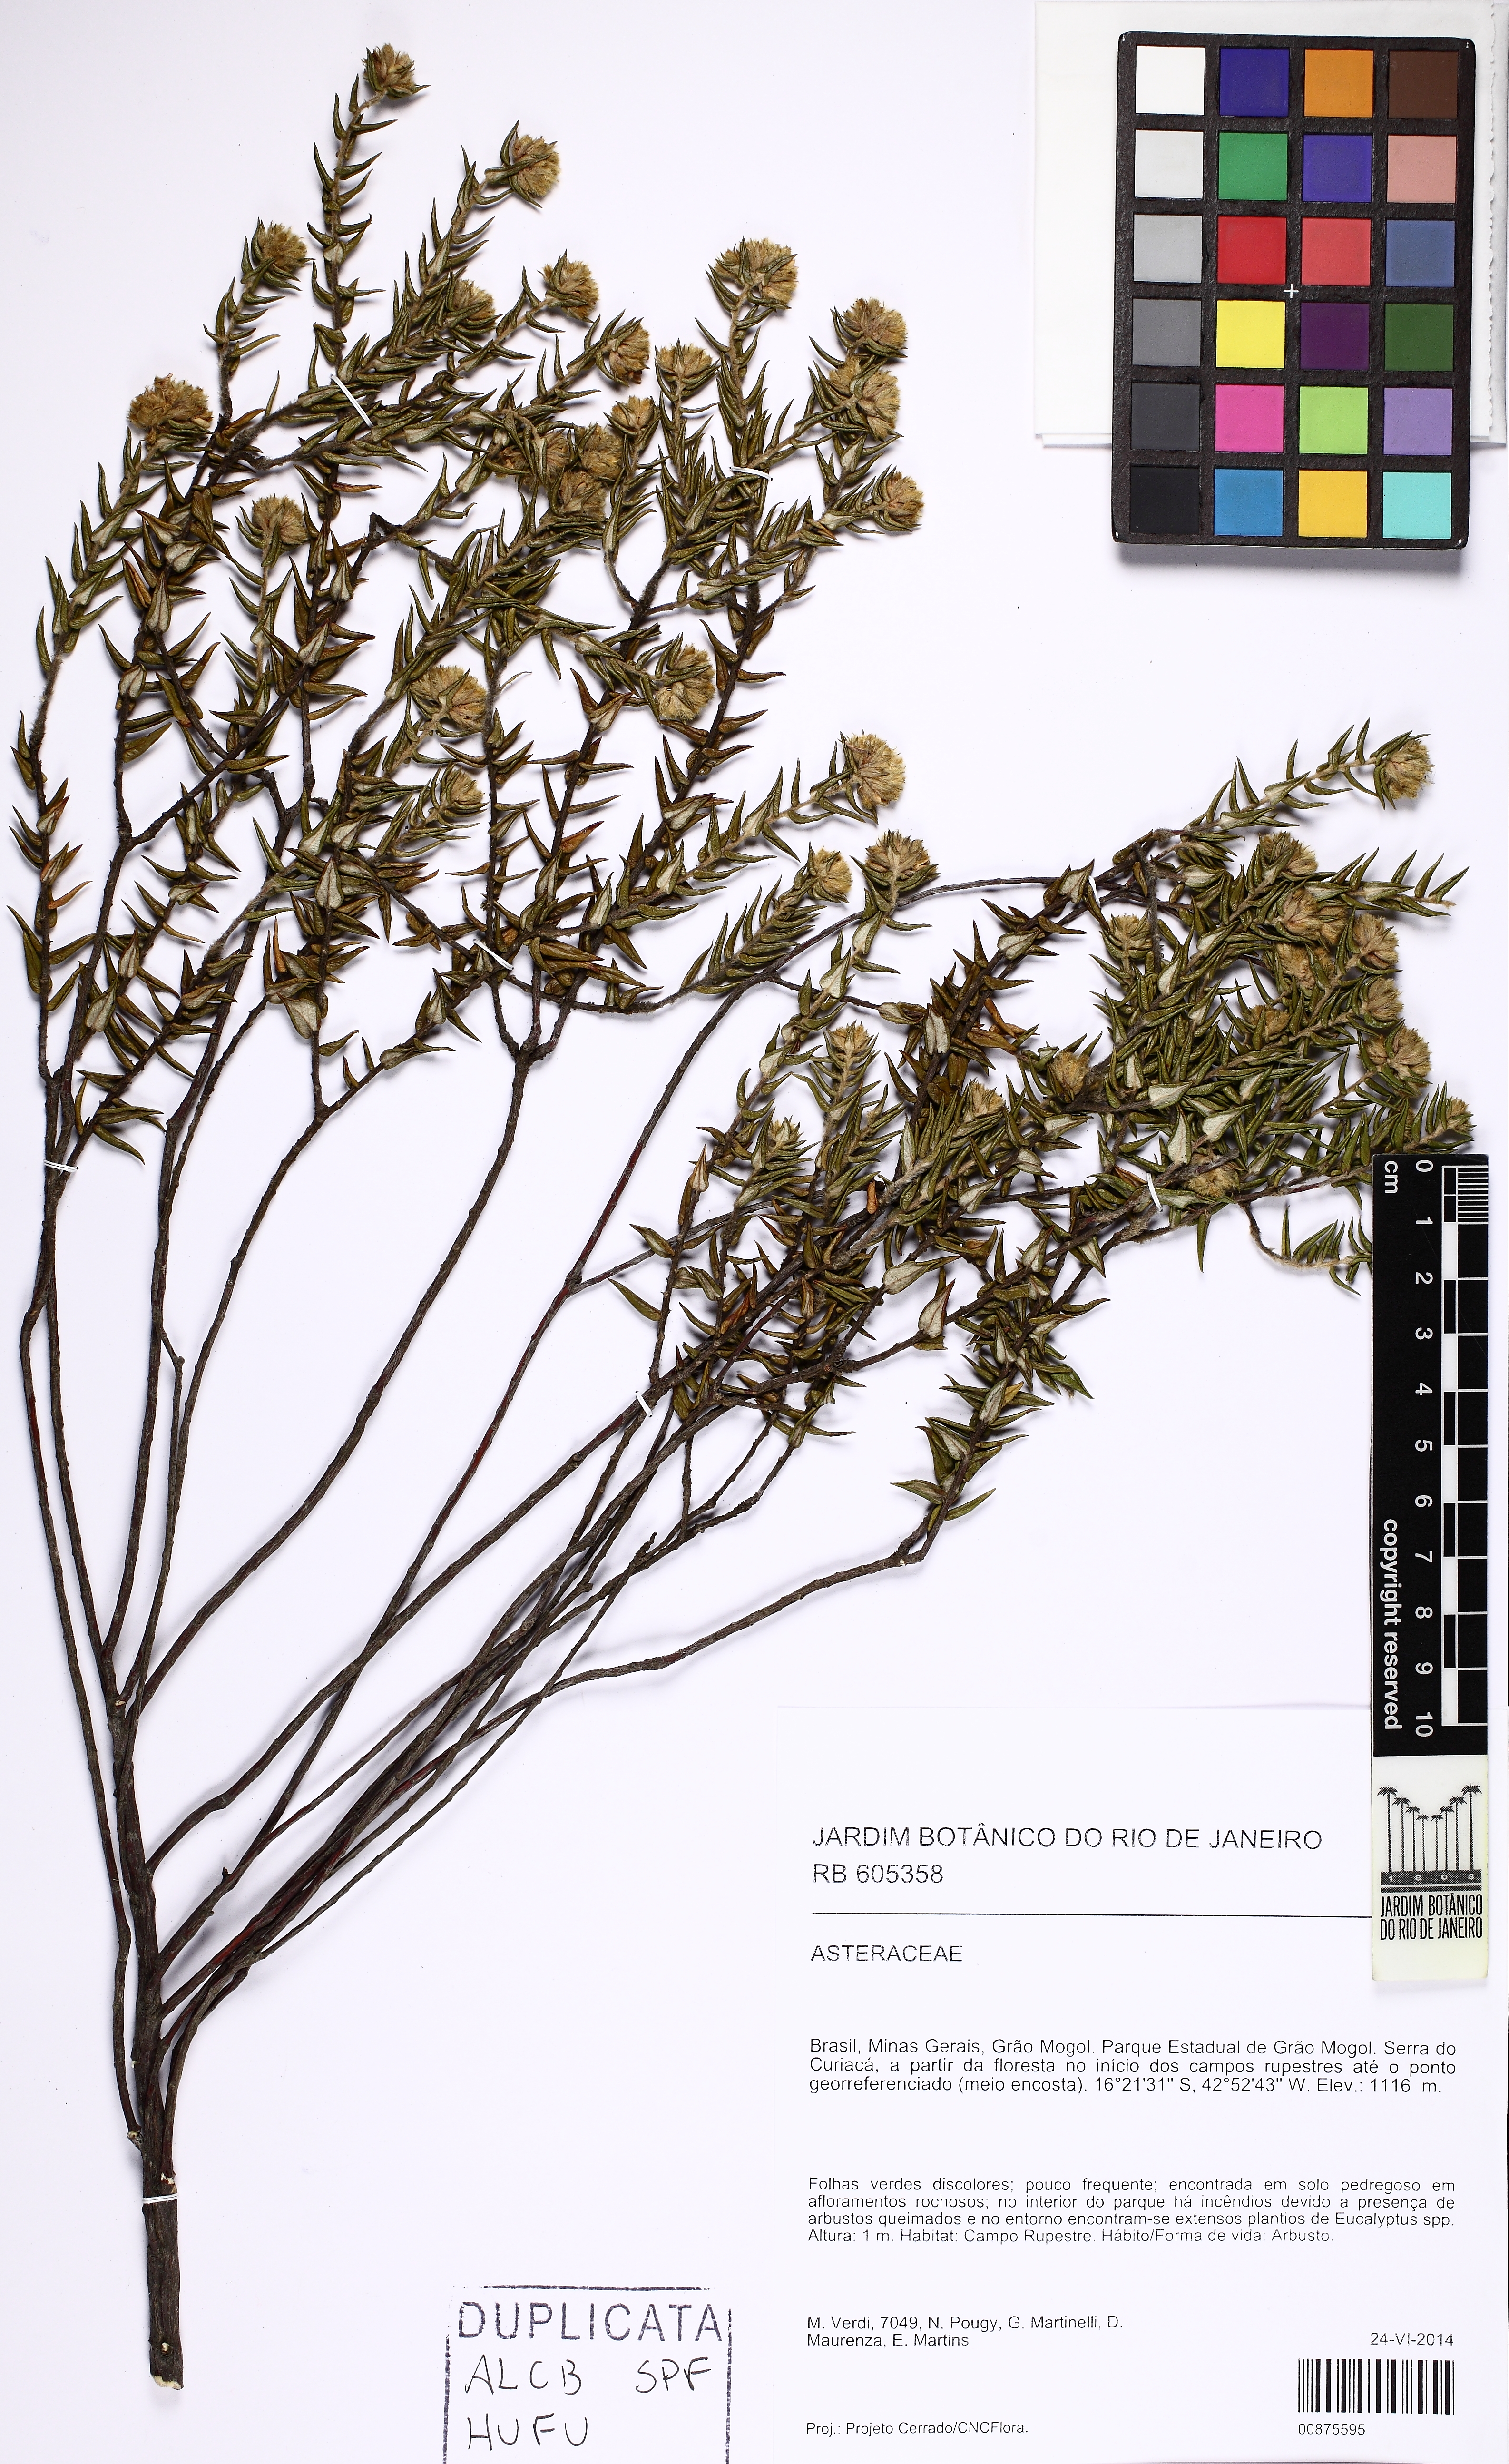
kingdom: Plantae
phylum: Tracheophyta
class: Magnoliopsida
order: Asterales
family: Asteraceae
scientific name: Asteraceae
